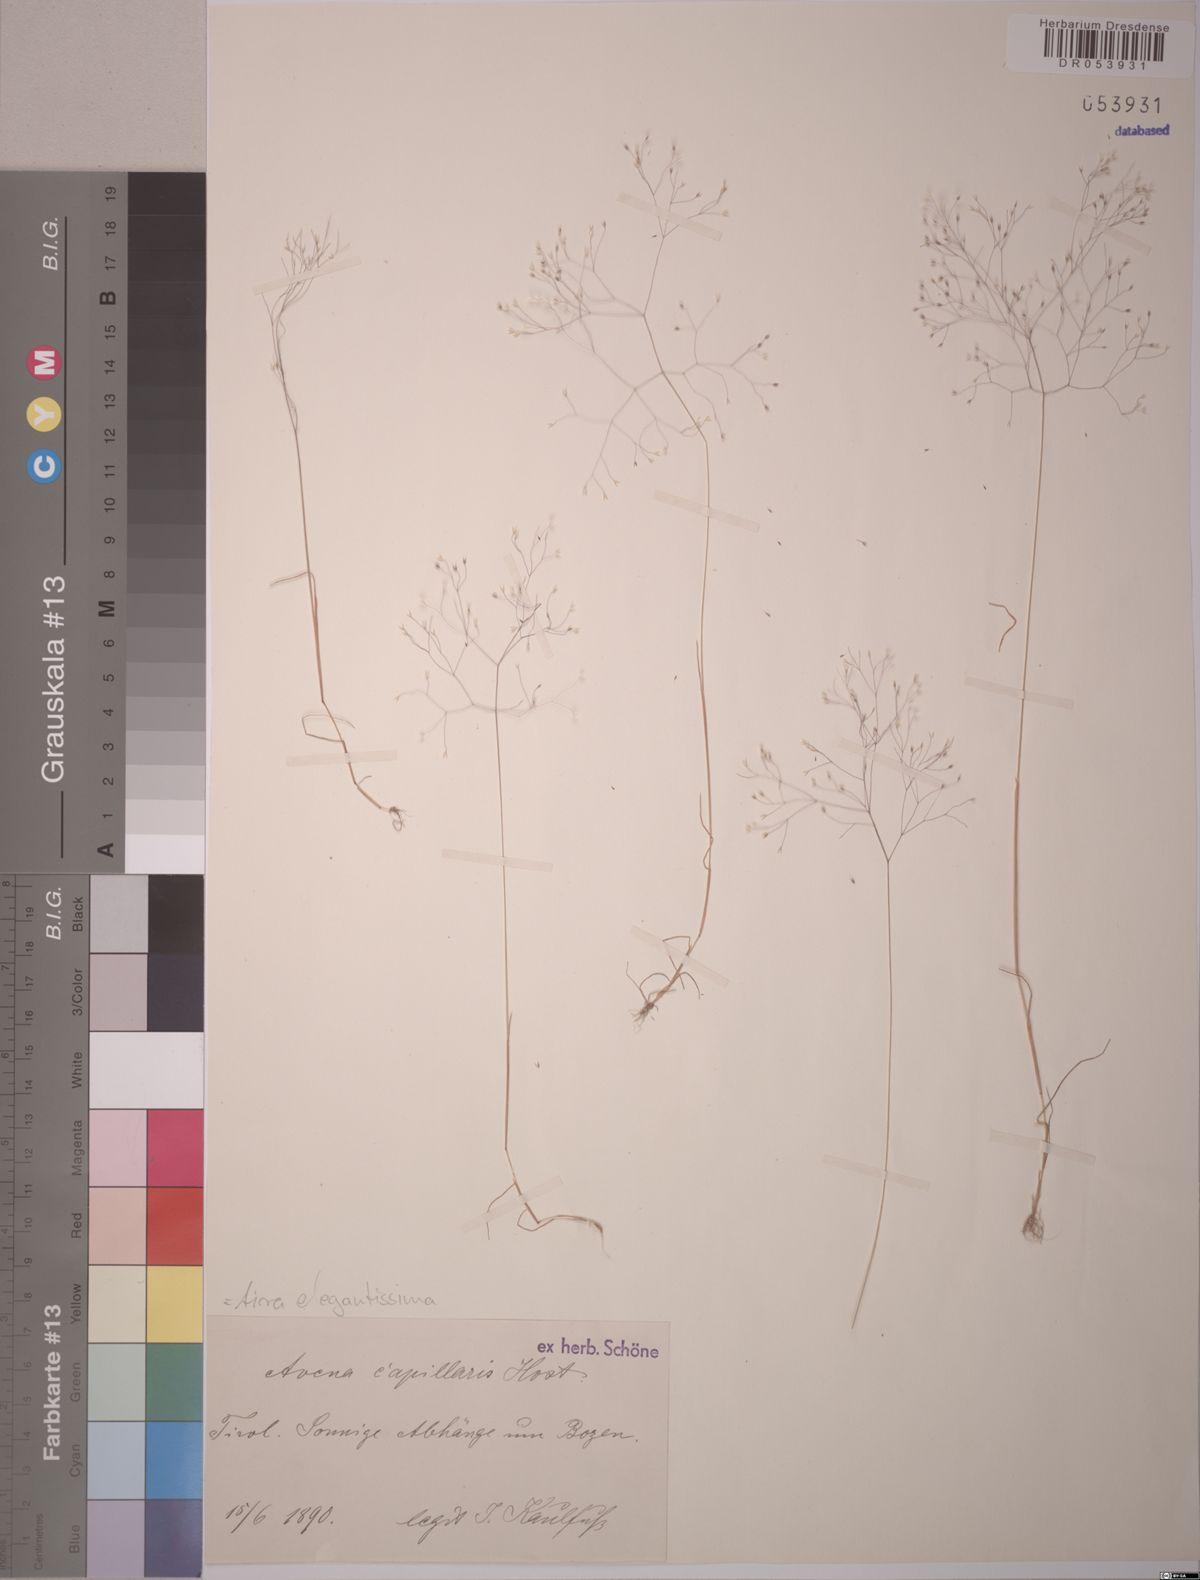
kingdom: Plantae
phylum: Tracheophyta
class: Liliopsida
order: Poales
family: Poaceae
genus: Aira
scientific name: Aira elegans
